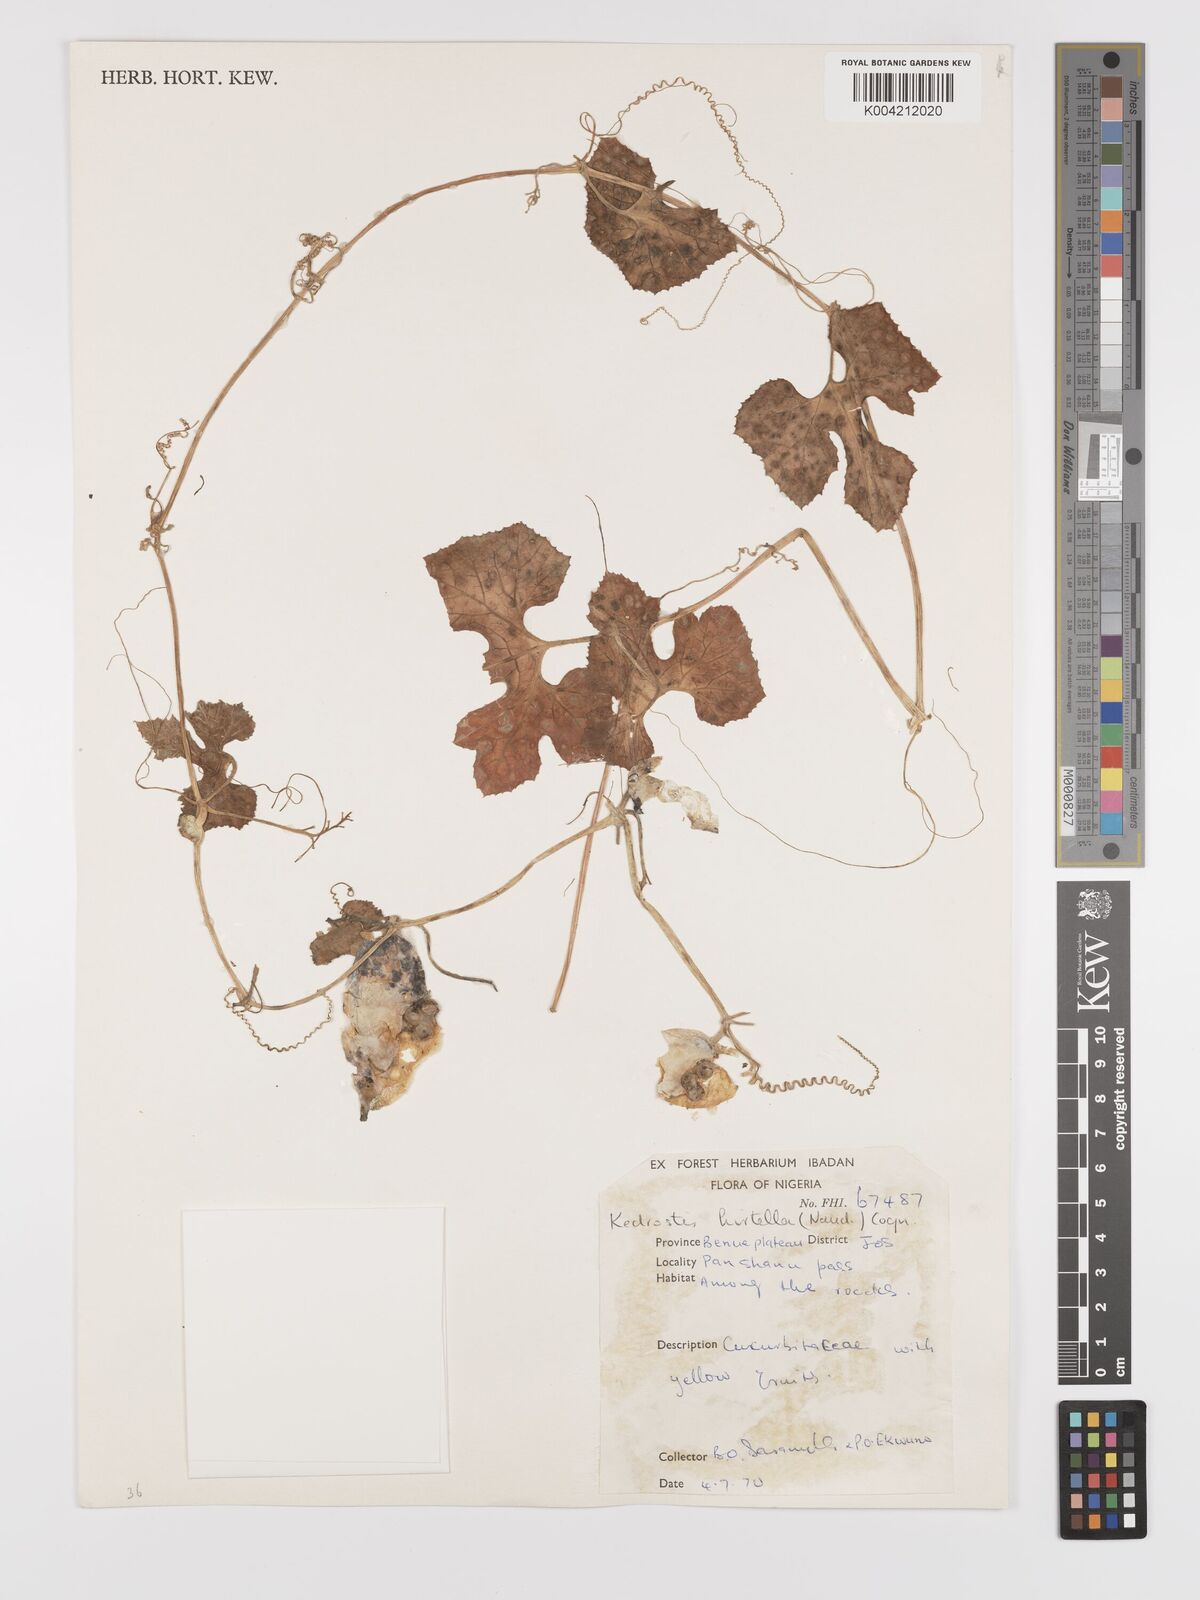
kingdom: Plantae
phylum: Tracheophyta
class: Magnoliopsida
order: Cucurbitales
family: Cucurbitaceae
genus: Kedrostis
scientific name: Kedrostis hirtella
